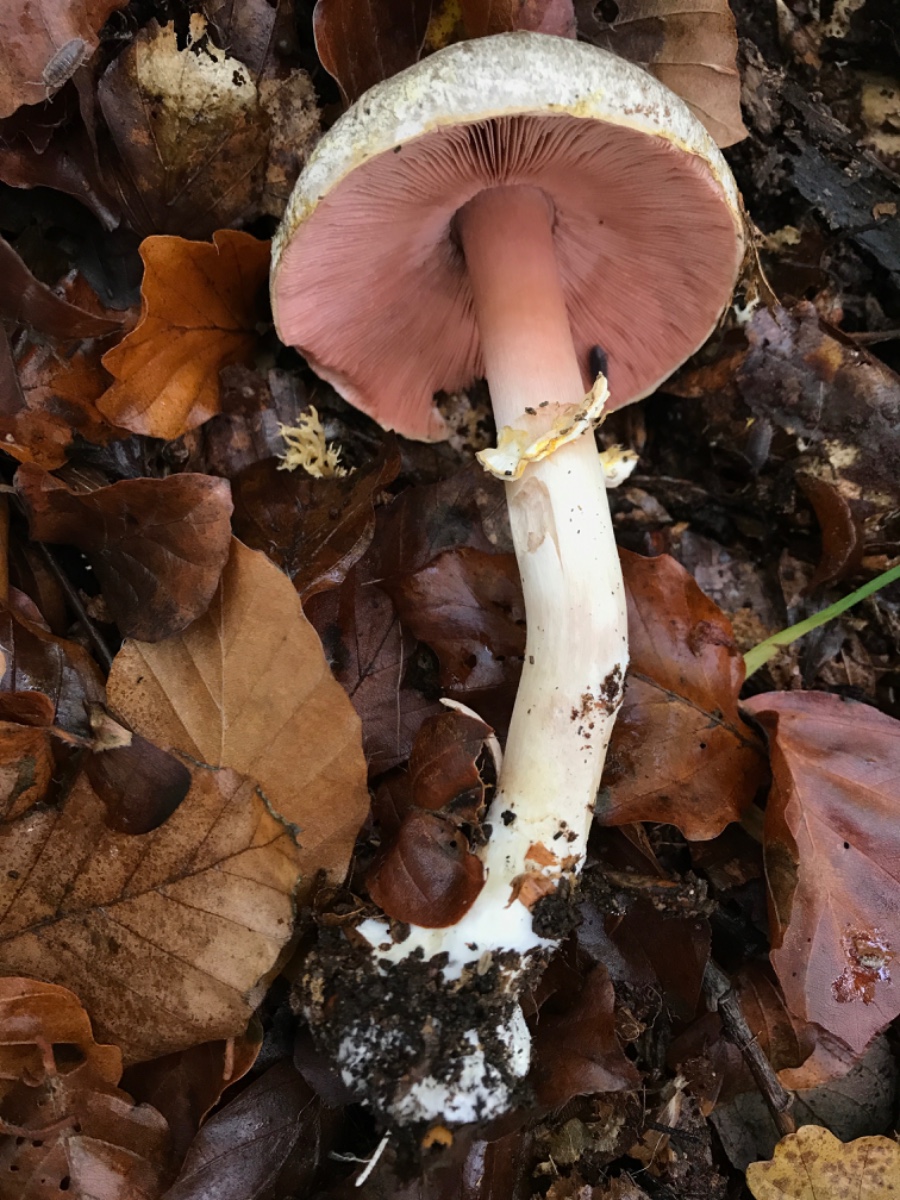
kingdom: Fungi
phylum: Basidiomycota
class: Agaricomycetes
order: Agaricales
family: Agaricaceae
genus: Agaricus
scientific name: Agaricus moelleri
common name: perlehøne-champignon
